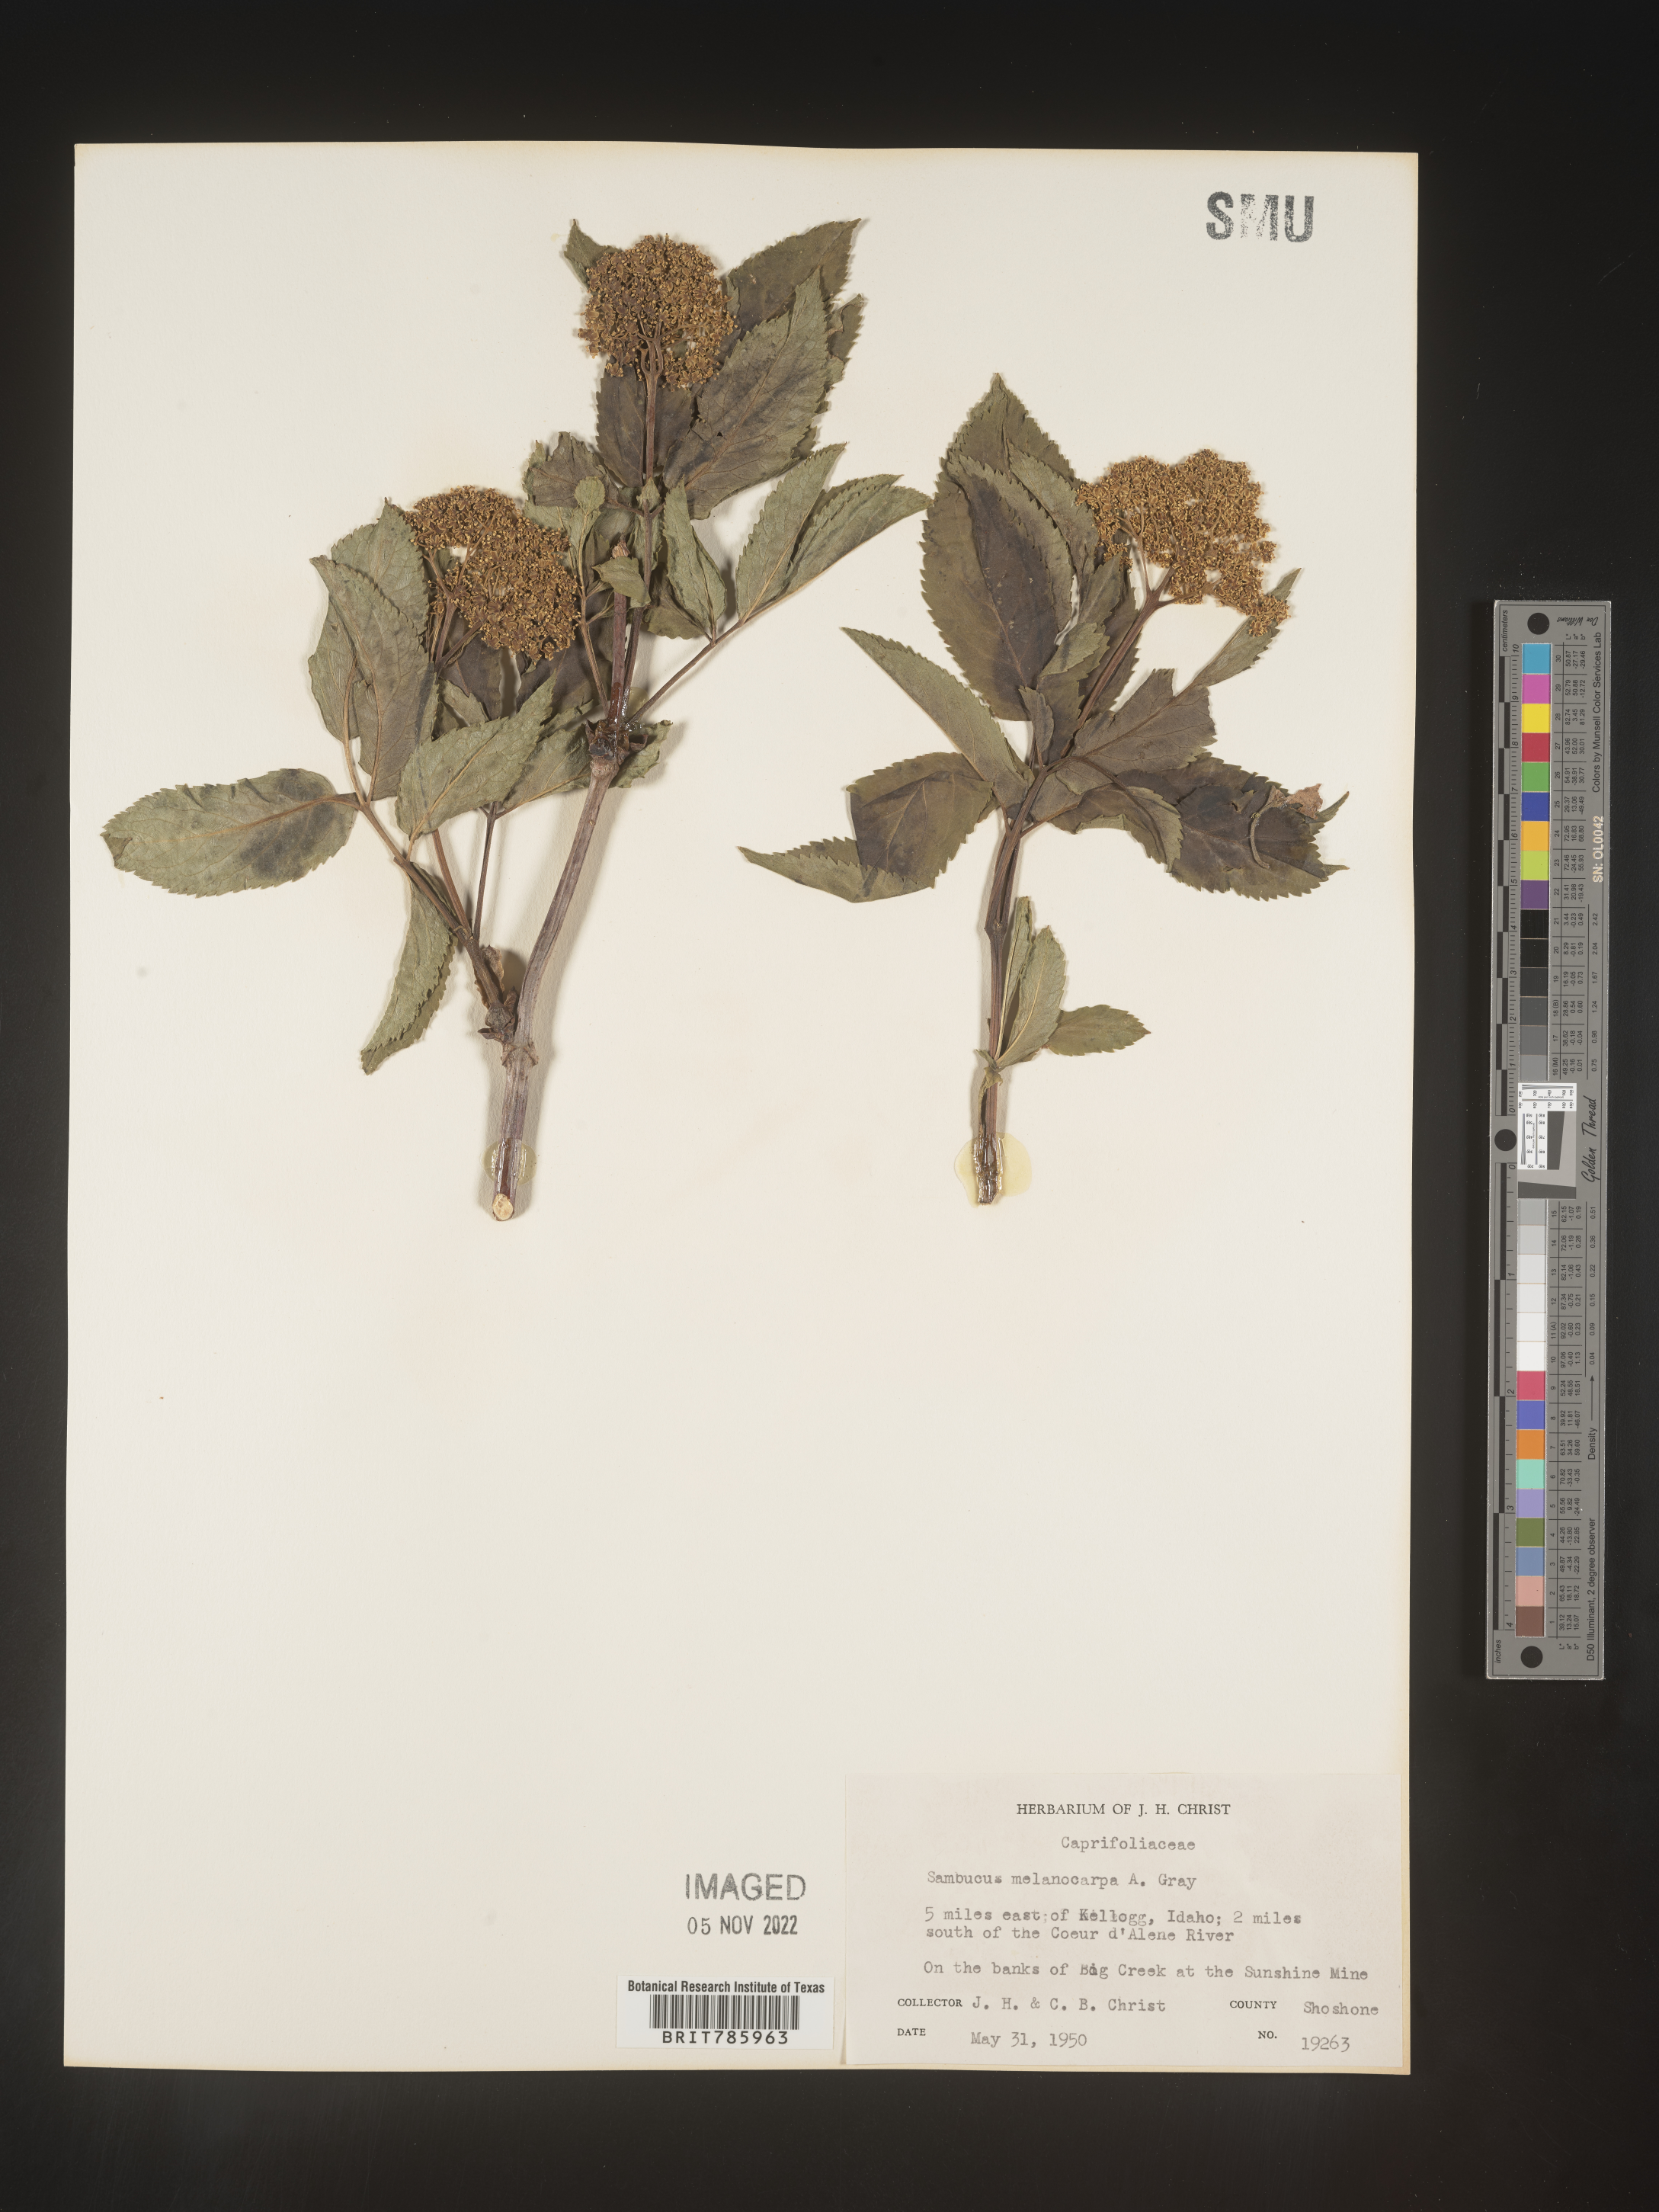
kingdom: Plantae
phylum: Tracheophyta
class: Magnoliopsida
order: Dipsacales
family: Viburnaceae
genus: Sambucus
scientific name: Sambucus racemosa
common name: Red-berried elder
